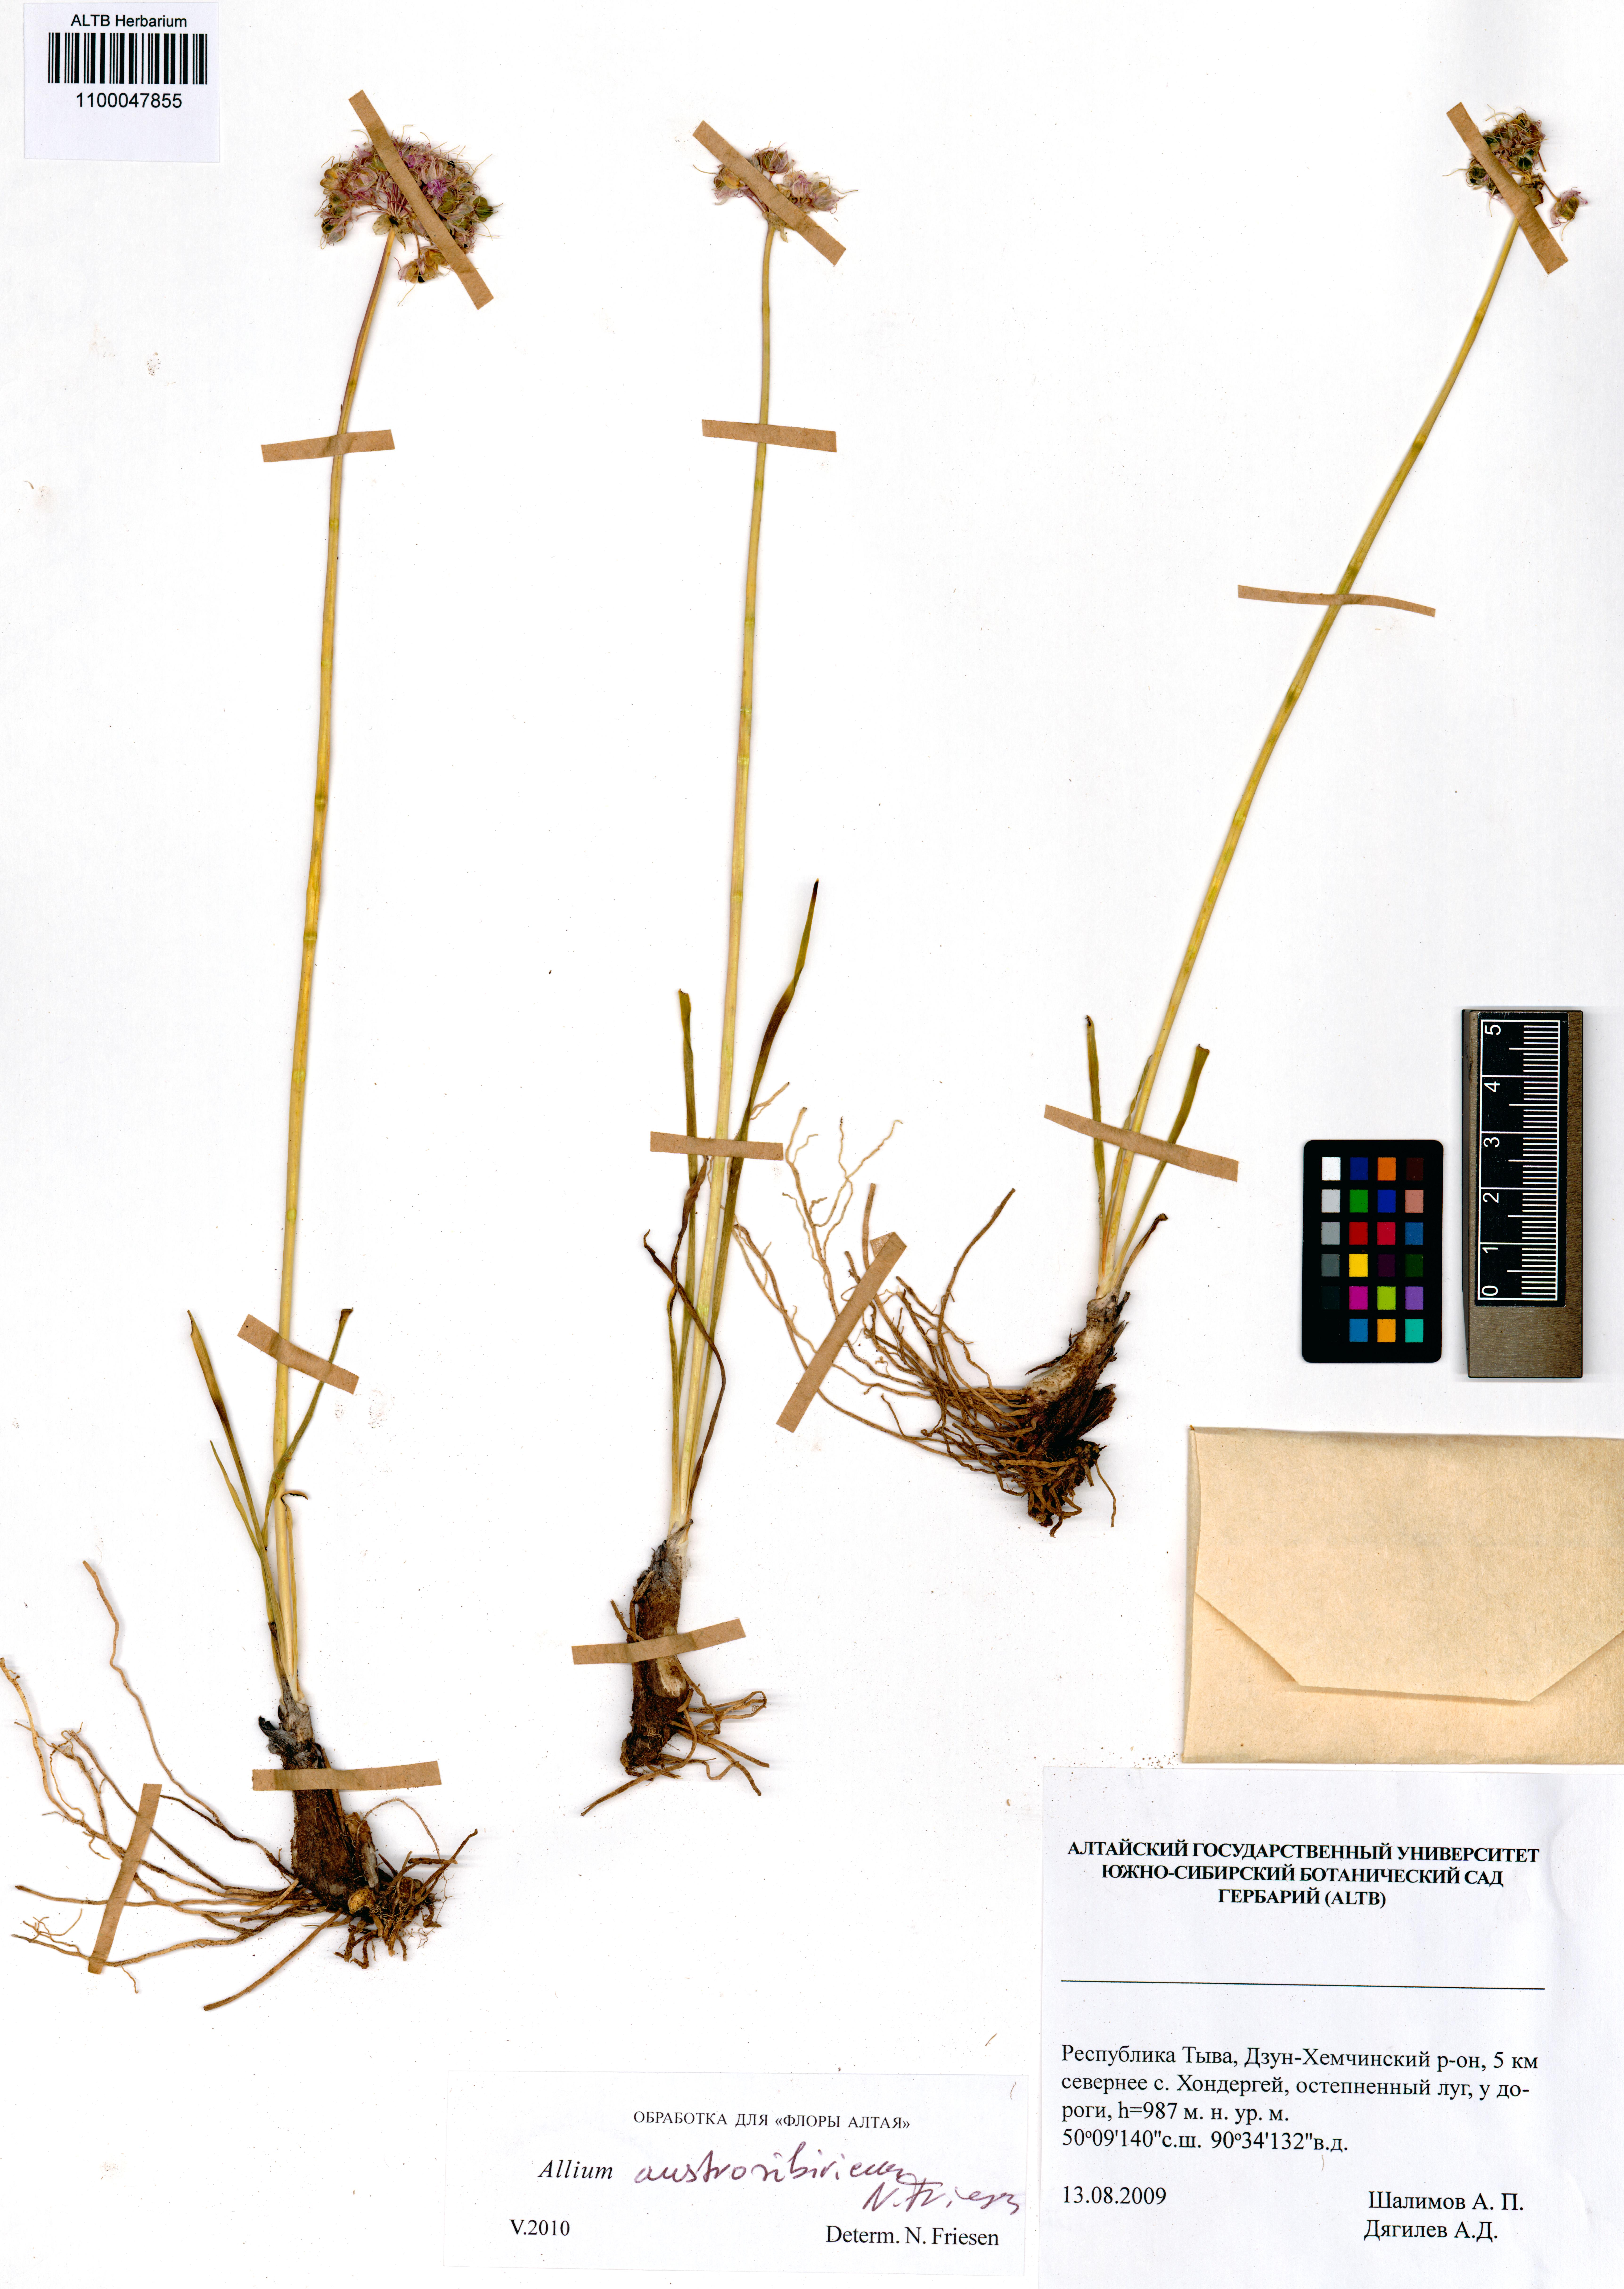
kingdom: Plantae
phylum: Tracheophyta
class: Liliopsida
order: Asparagales
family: Amaryllidaceae
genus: Allium
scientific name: Allium austrosibiricum
